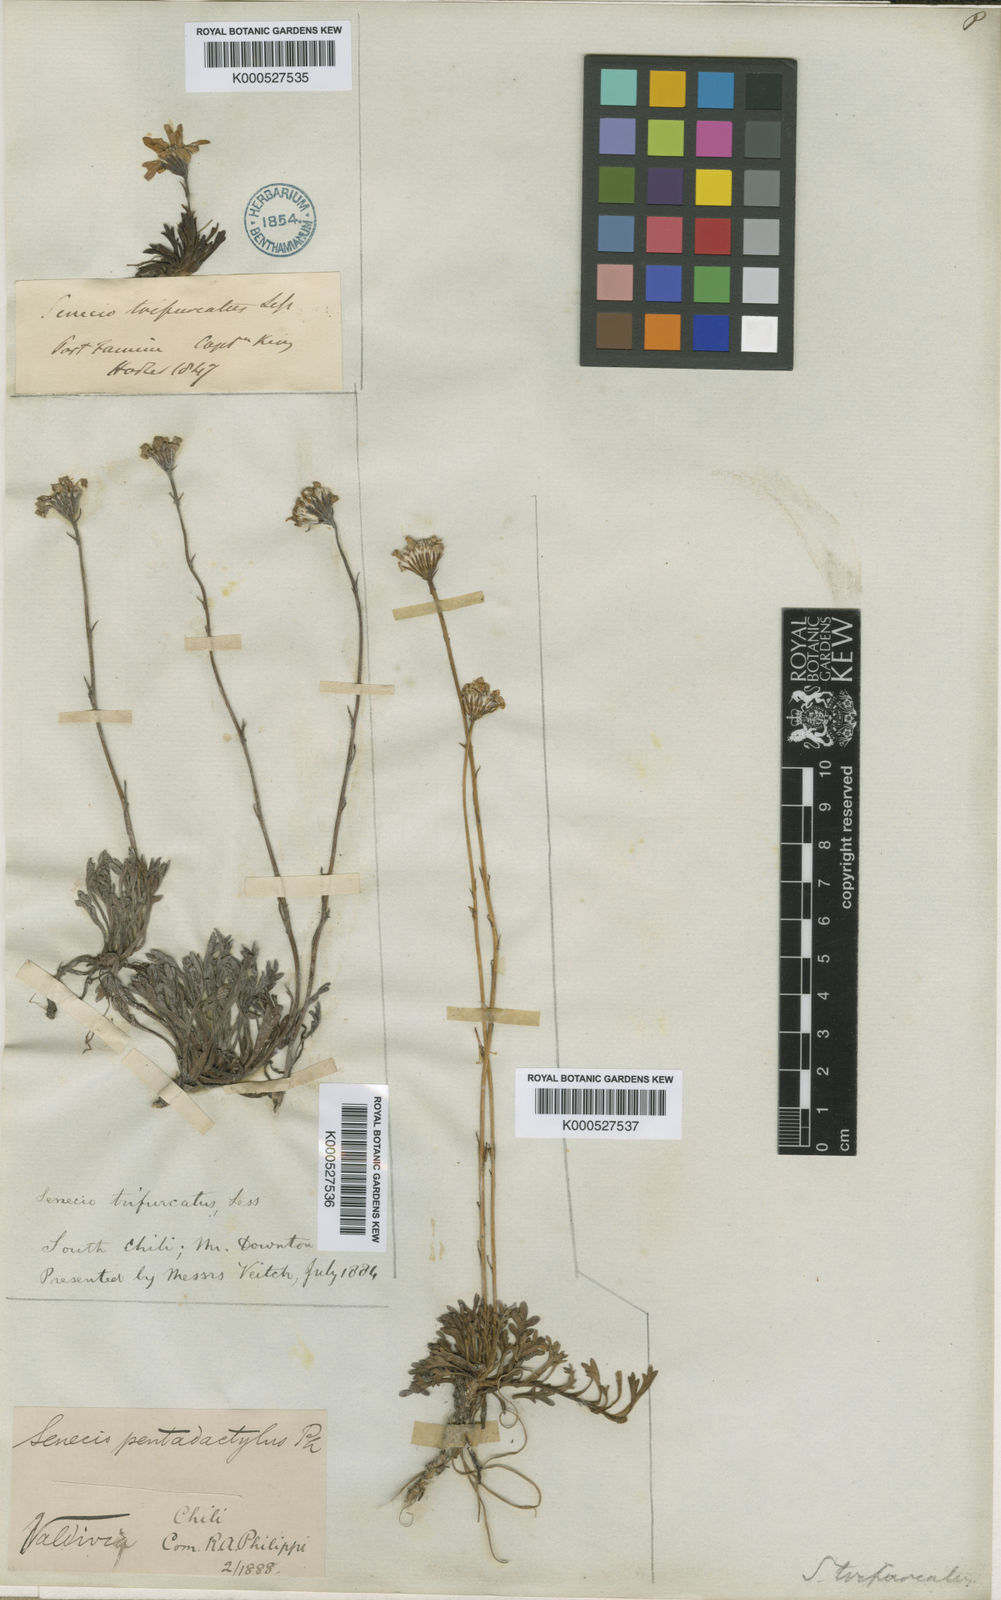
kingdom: Plantae
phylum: Tracheophyta
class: Magnoliopsida
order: Asterales
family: Asteraceae
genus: Haplosticha
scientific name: Haplosticha trifurcata
